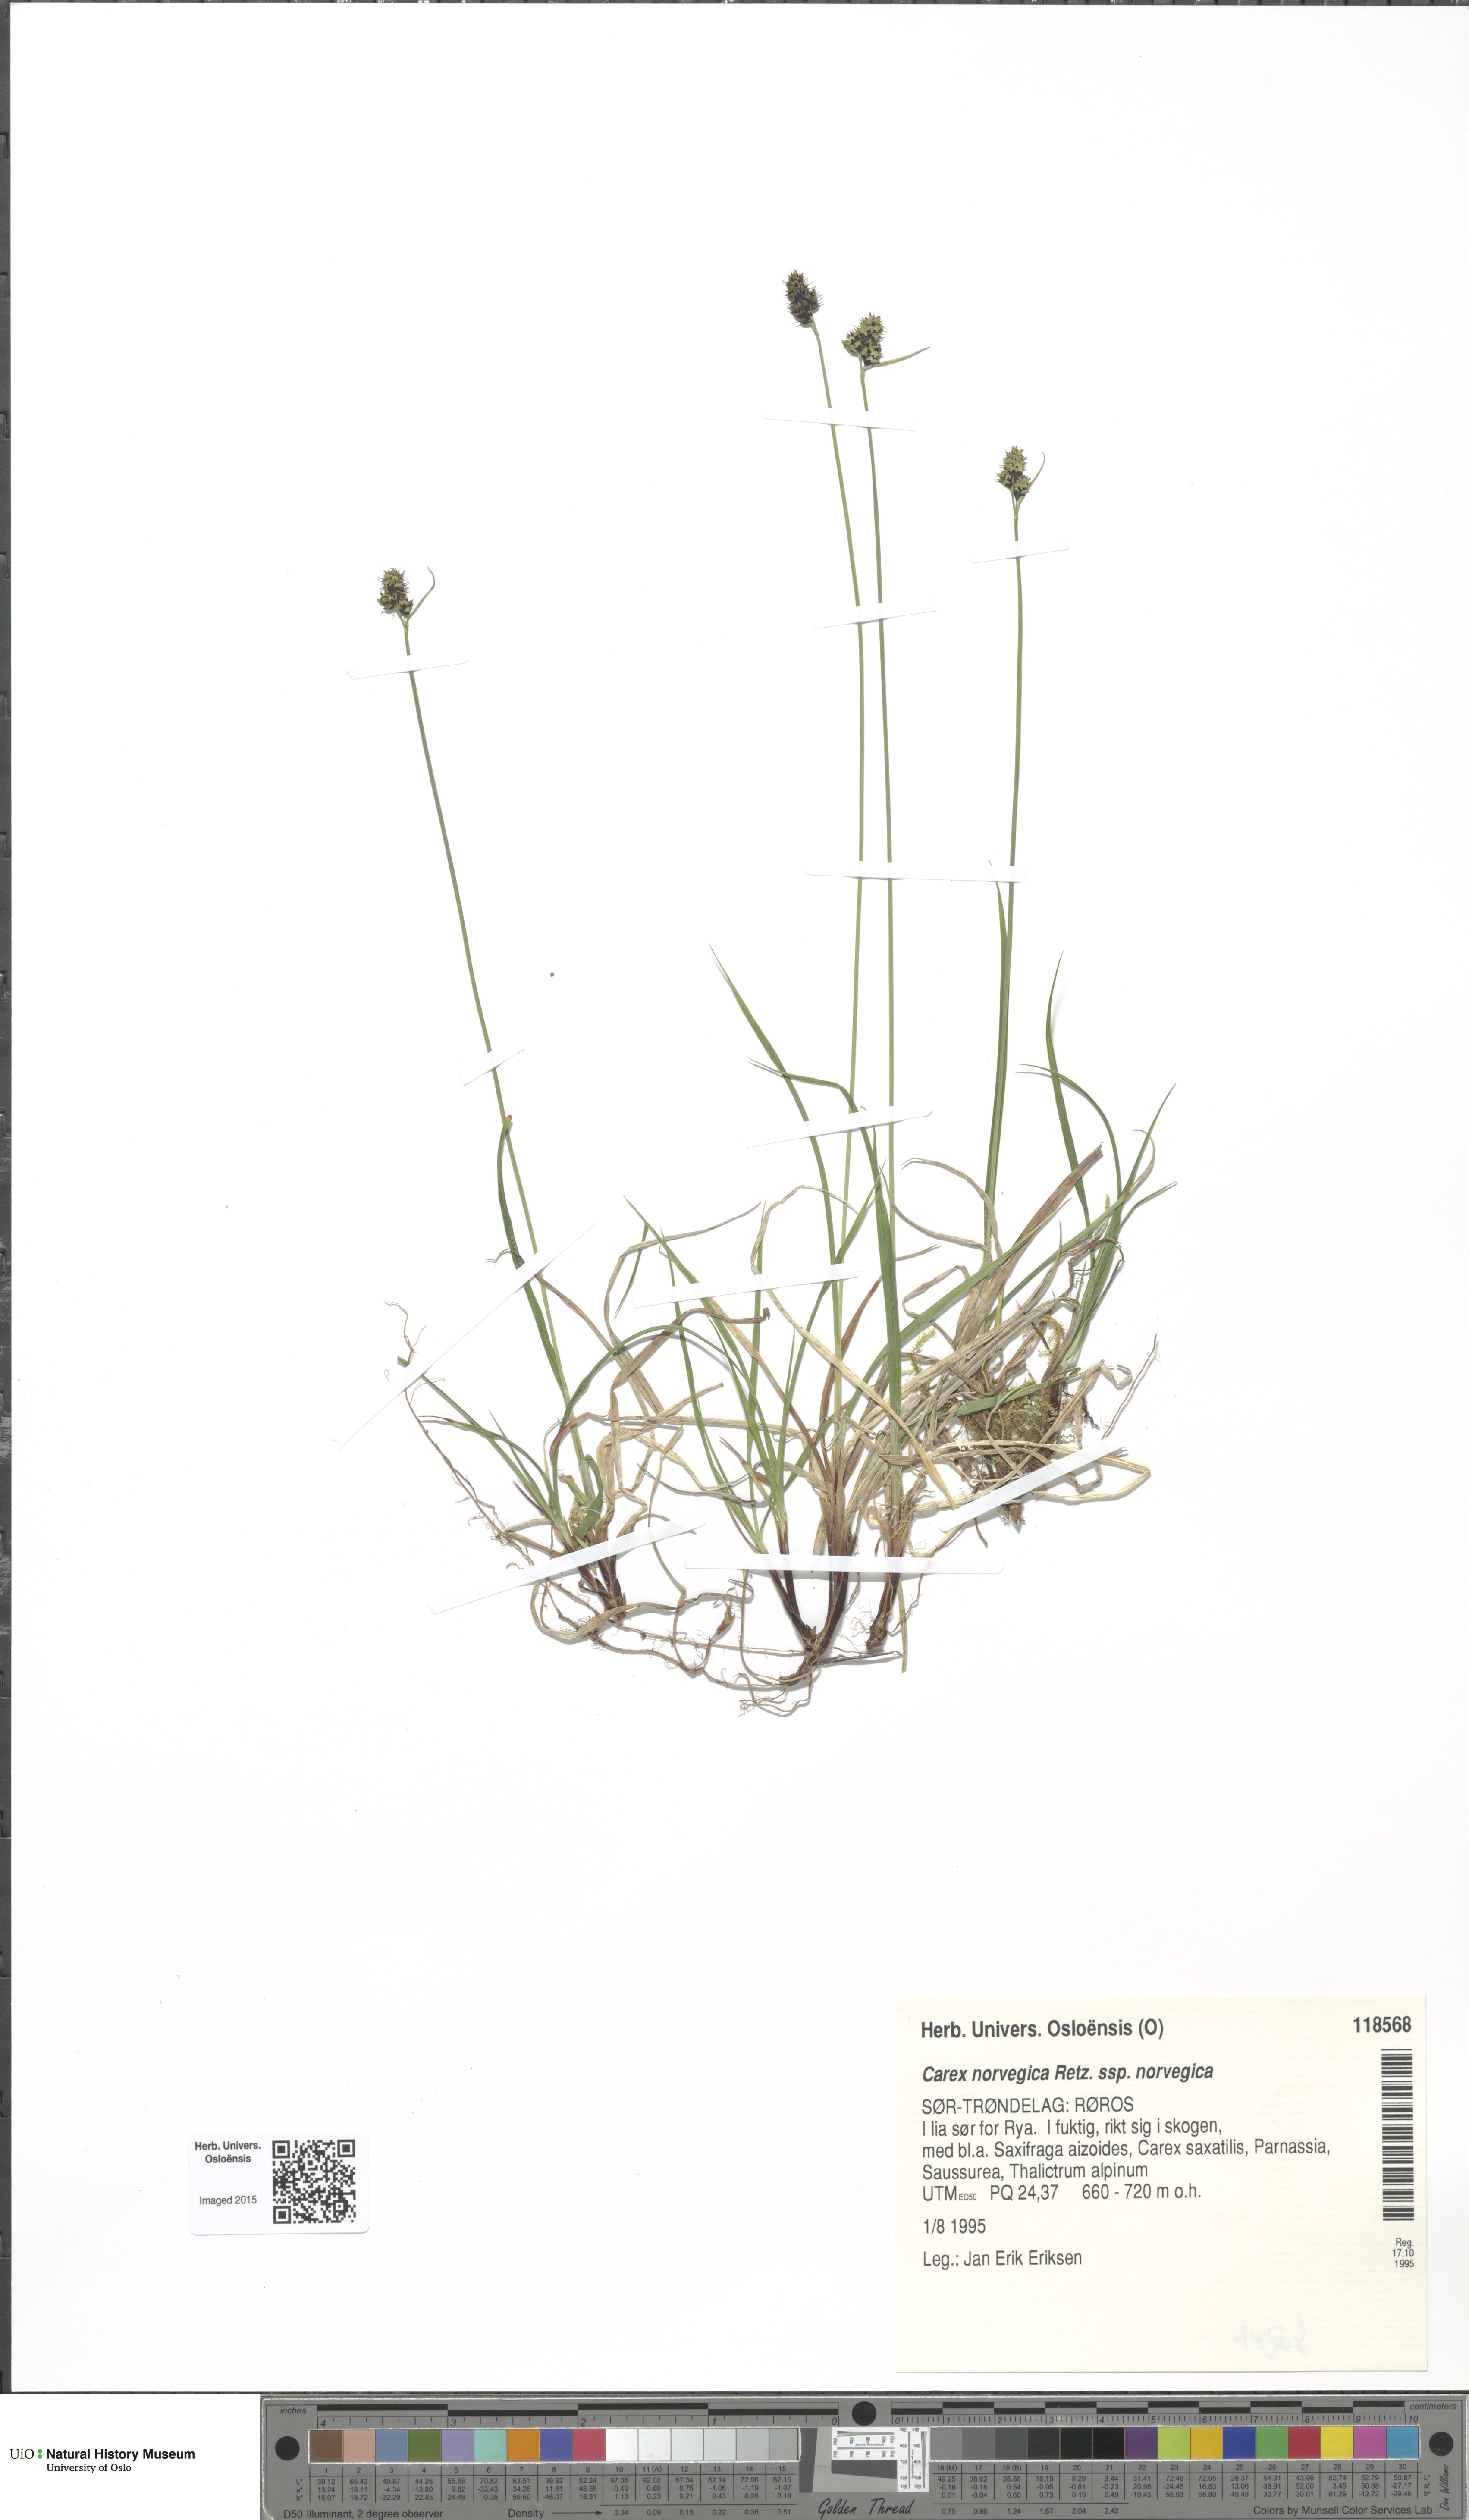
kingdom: Plantae
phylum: Tracheophyta
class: Liliopsida
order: Poales
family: Cyperaceae
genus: Carex
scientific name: Carex norvegica
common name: Close-headed alpine-sedge
